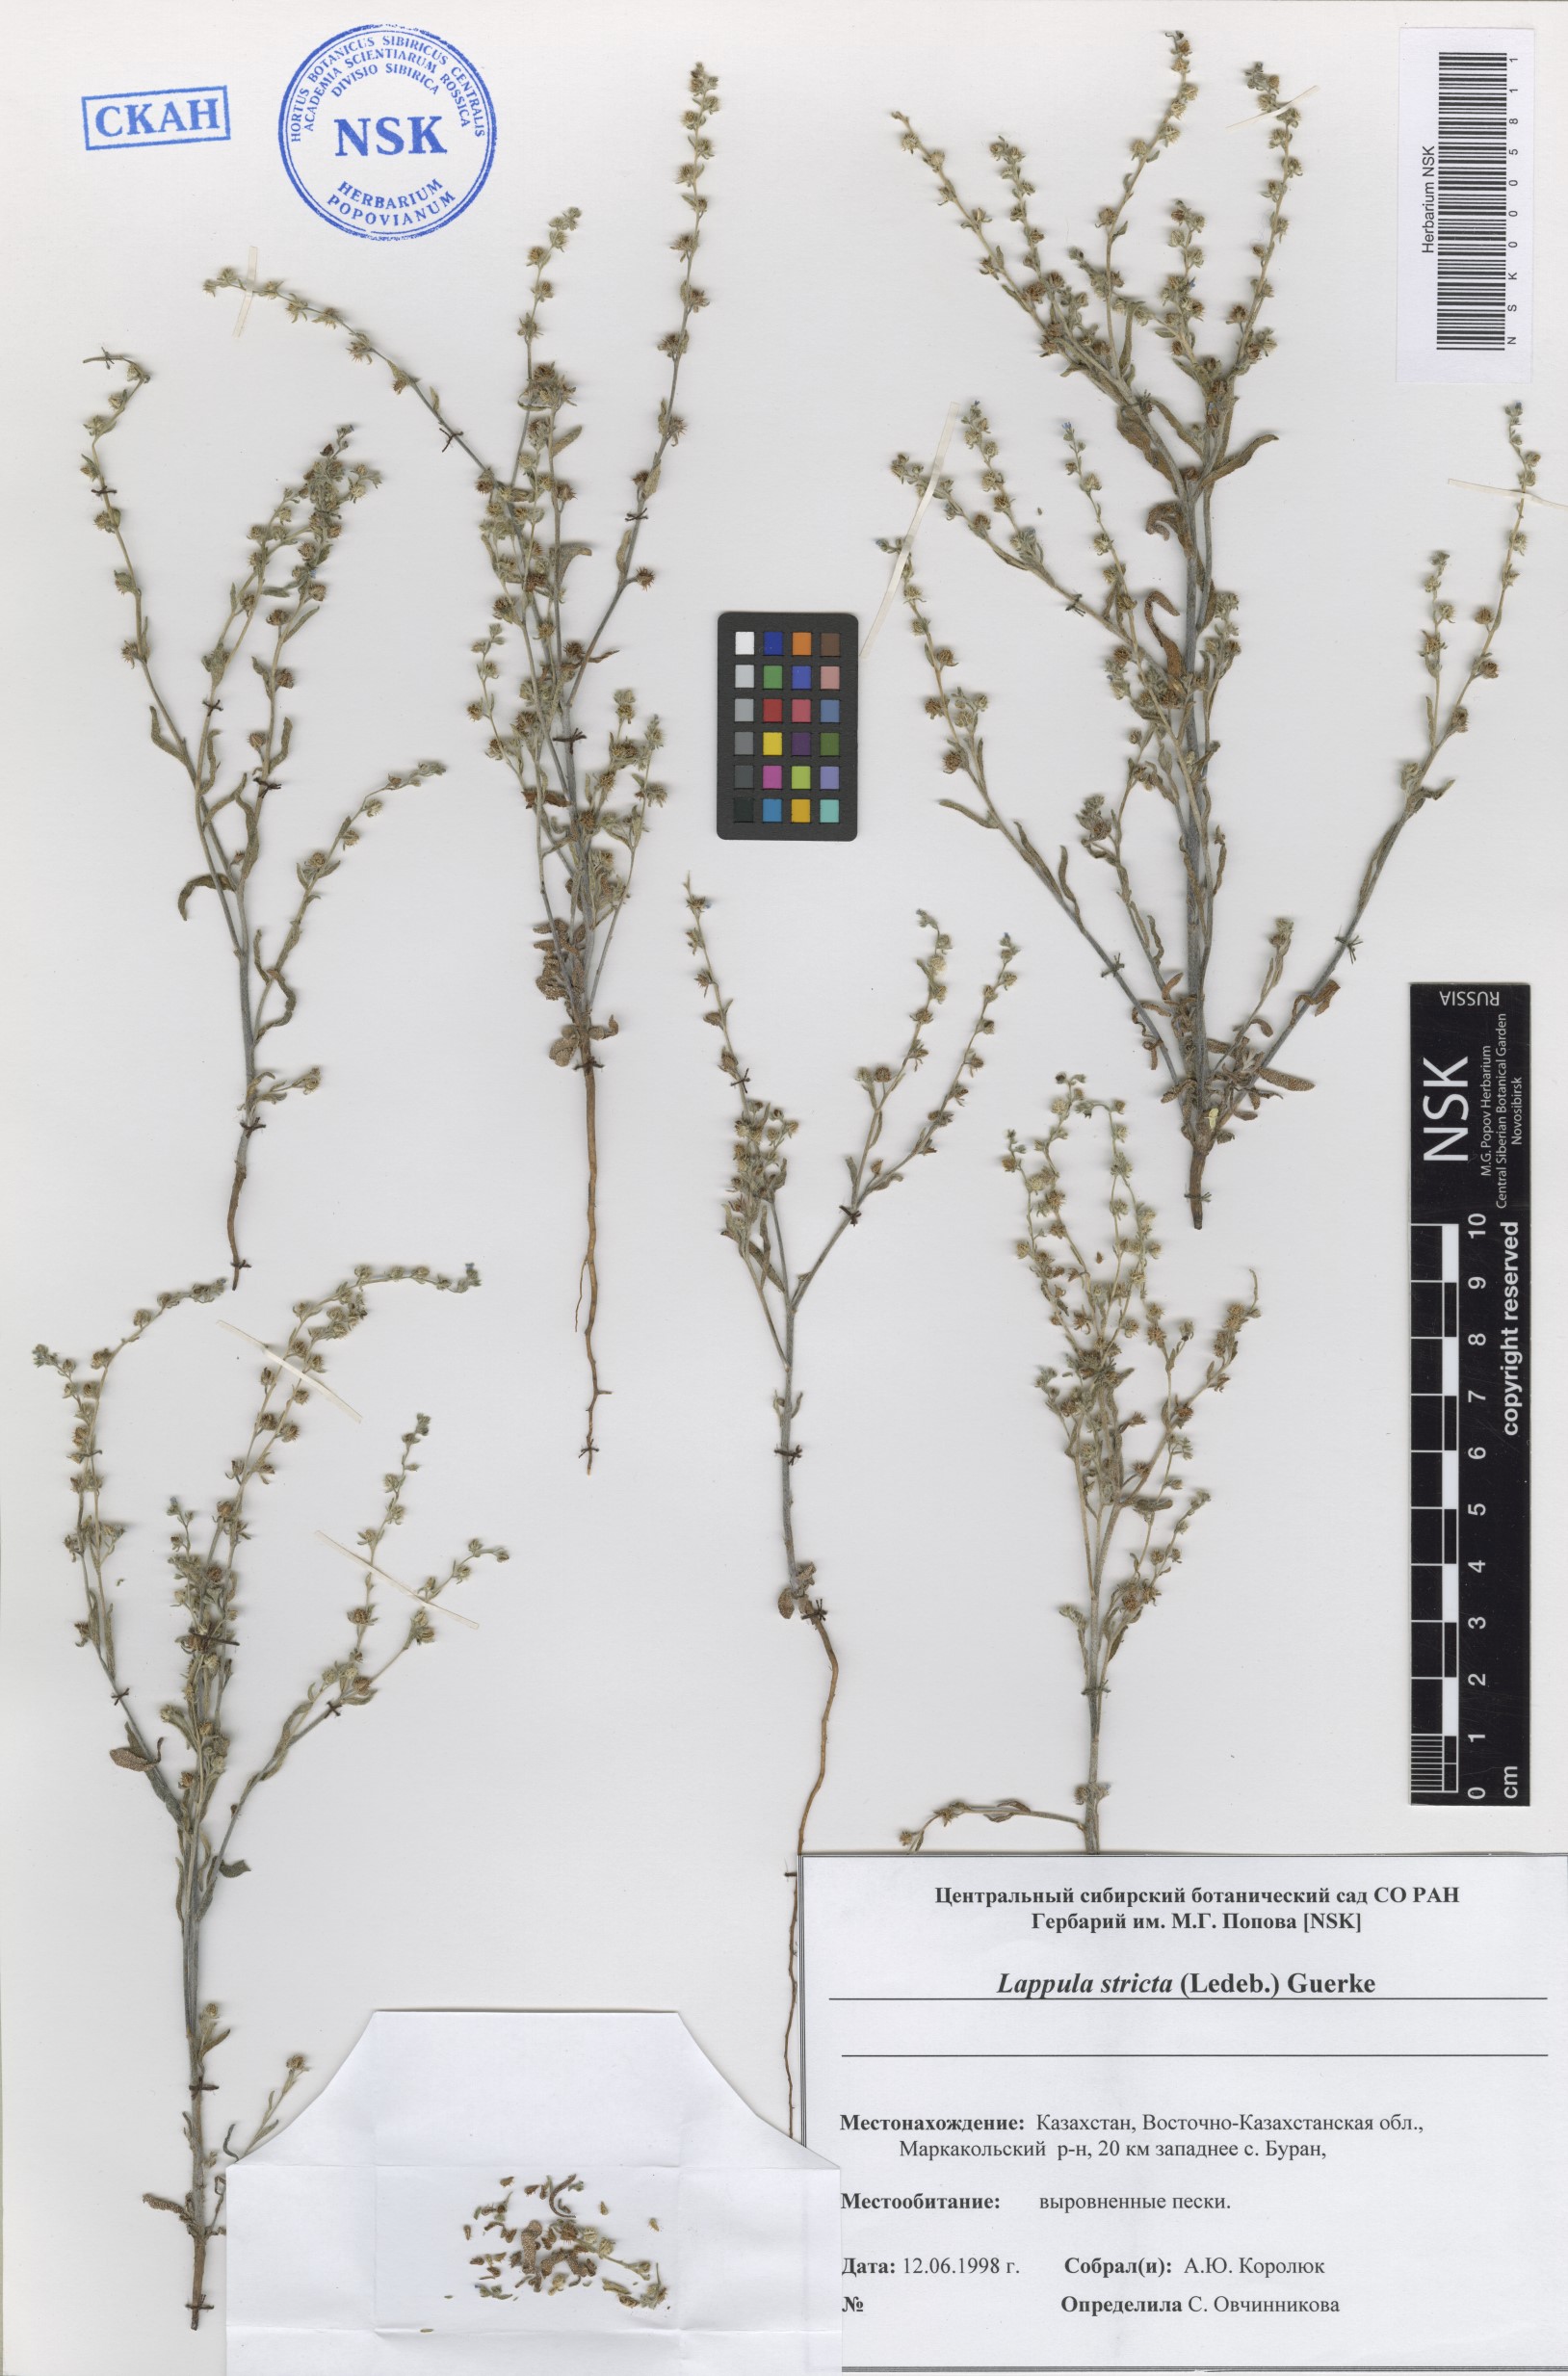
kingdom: Plantae
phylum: Tracheophyta
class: Magnoliopsida
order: Boraginales
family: Boraginaceae
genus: Lappula
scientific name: Lappula stricta
